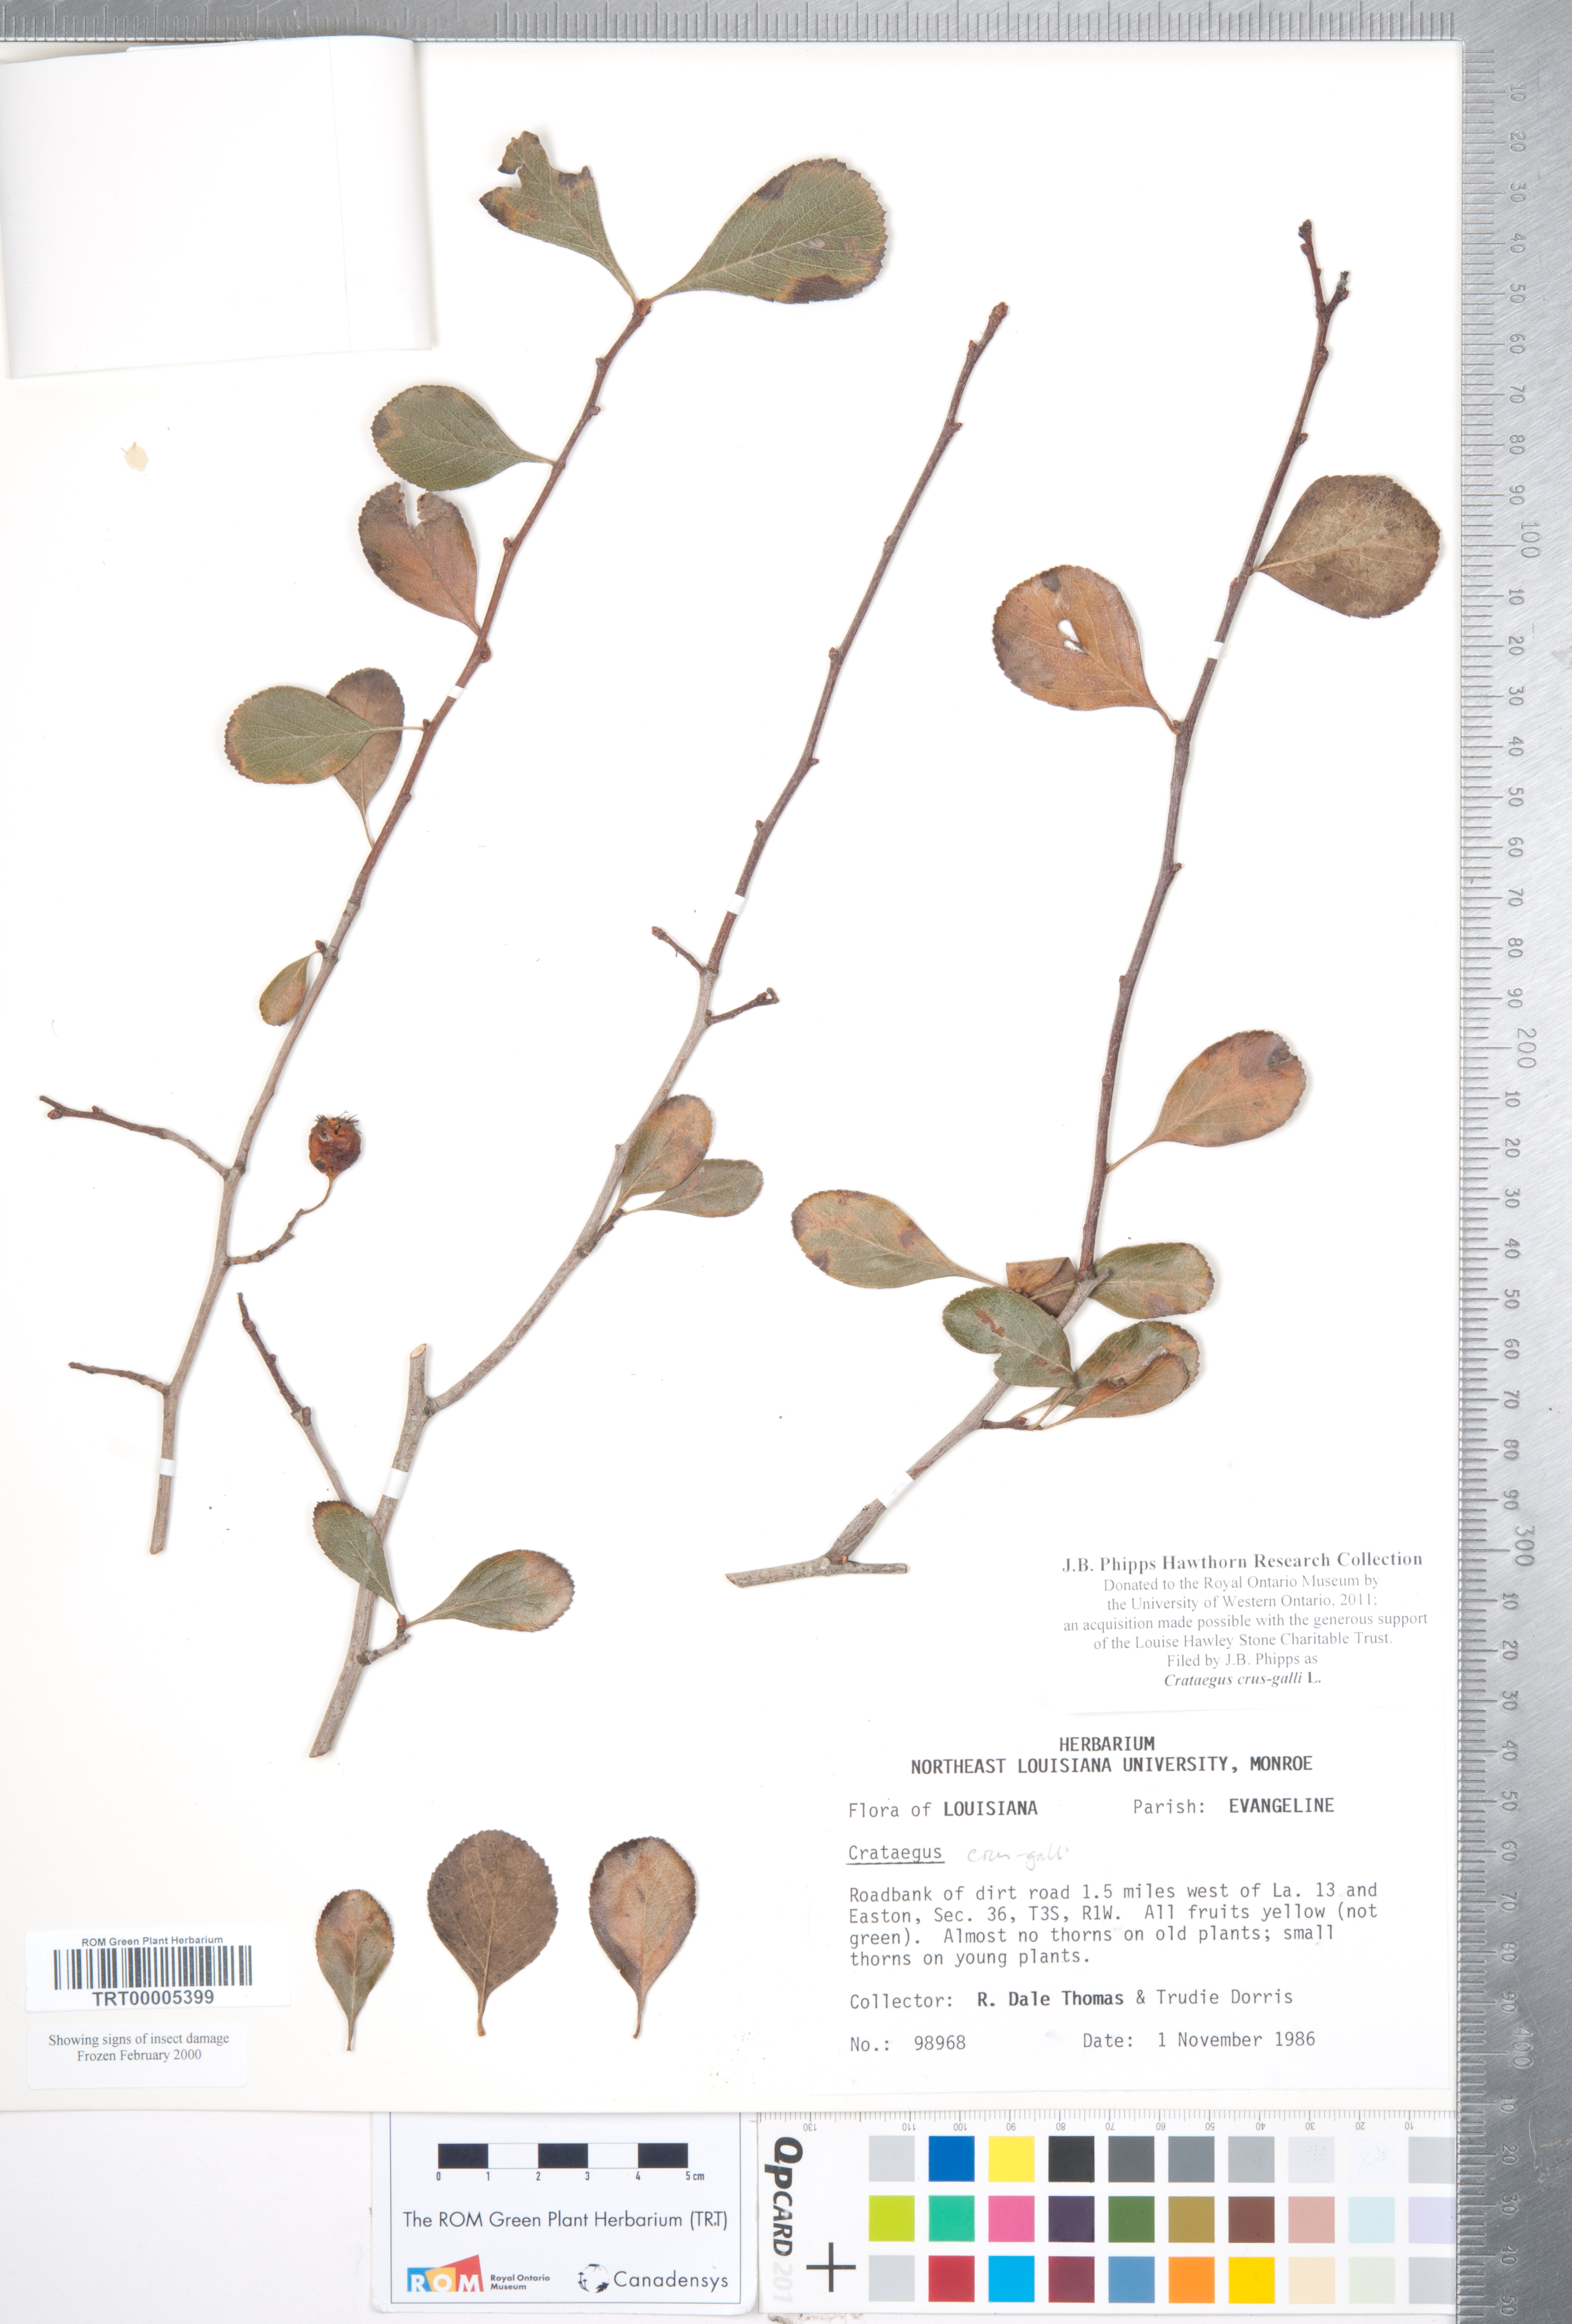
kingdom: Plantae
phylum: Tracheophyta
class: Magnoliopsida
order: Rosales
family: Rosaceae
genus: Crataegus
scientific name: Crataegus crus-galli
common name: Cockspurthorn
